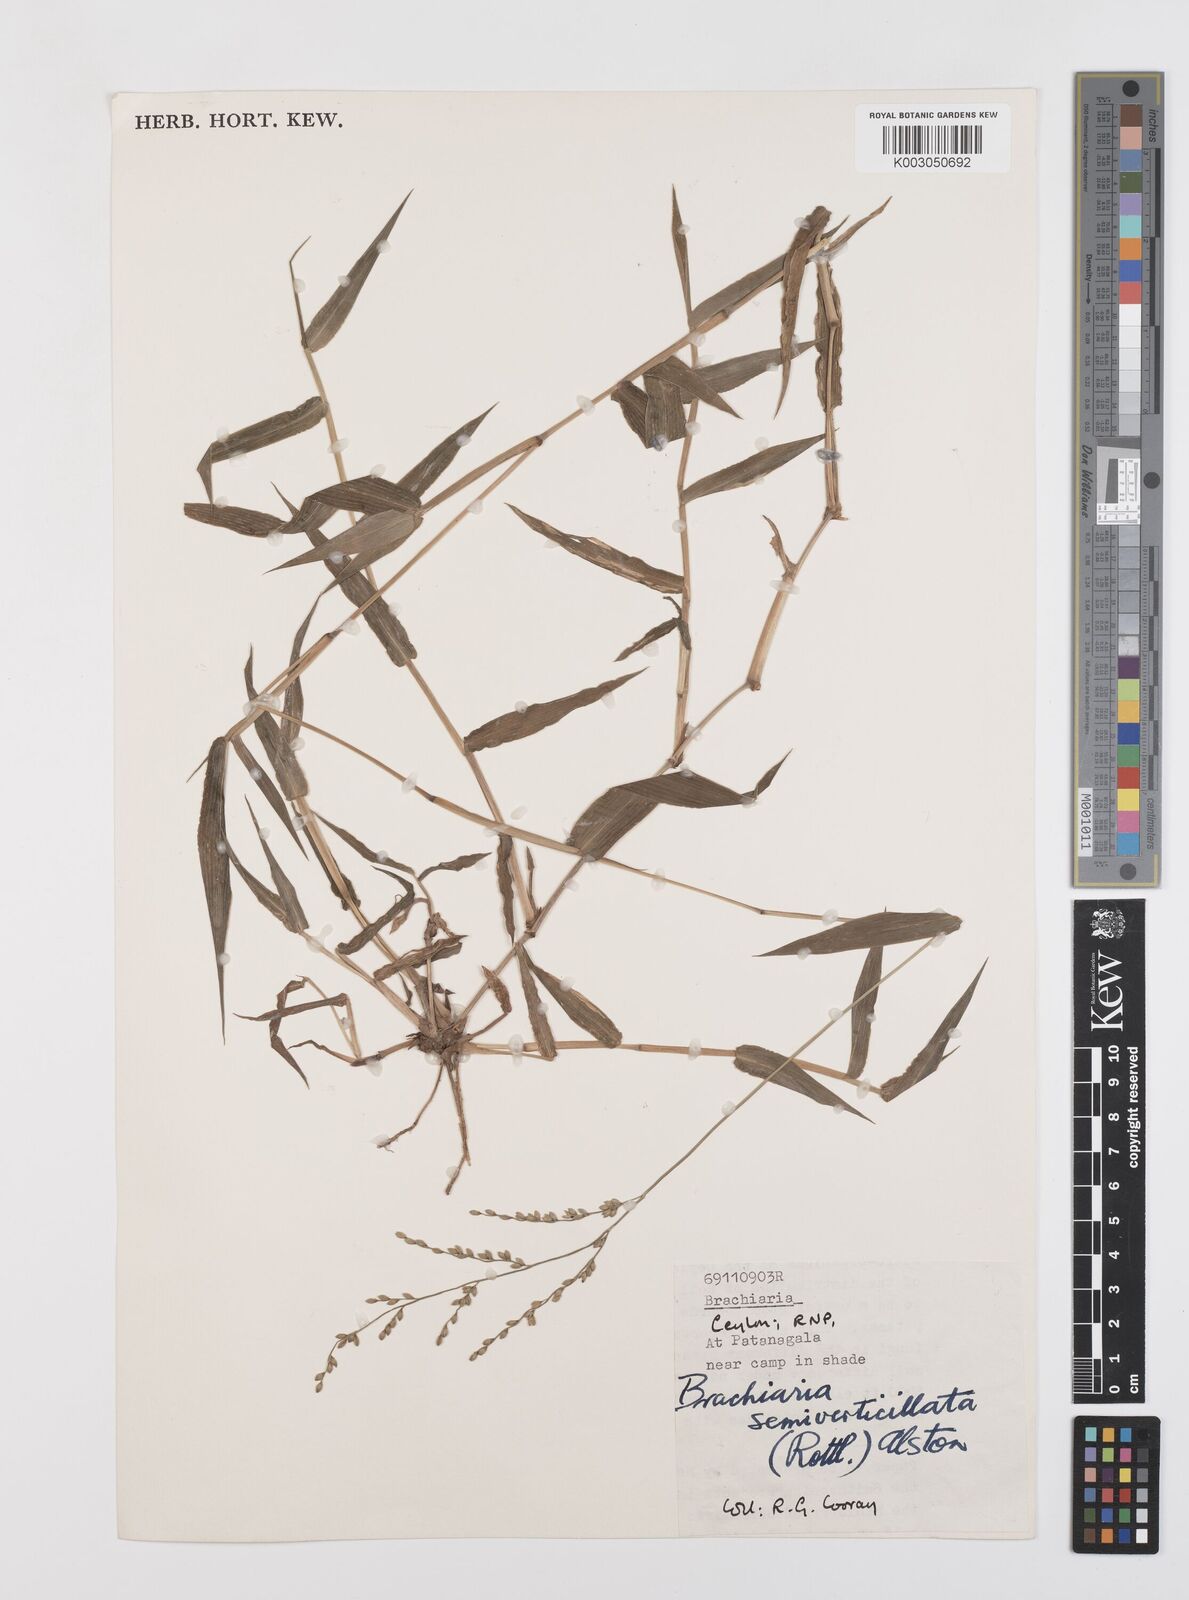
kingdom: Plantae
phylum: Tracheophyta
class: Liliopsida
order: Poales
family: Poaceae
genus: Urochloa
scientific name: Urochloa semiundulata
